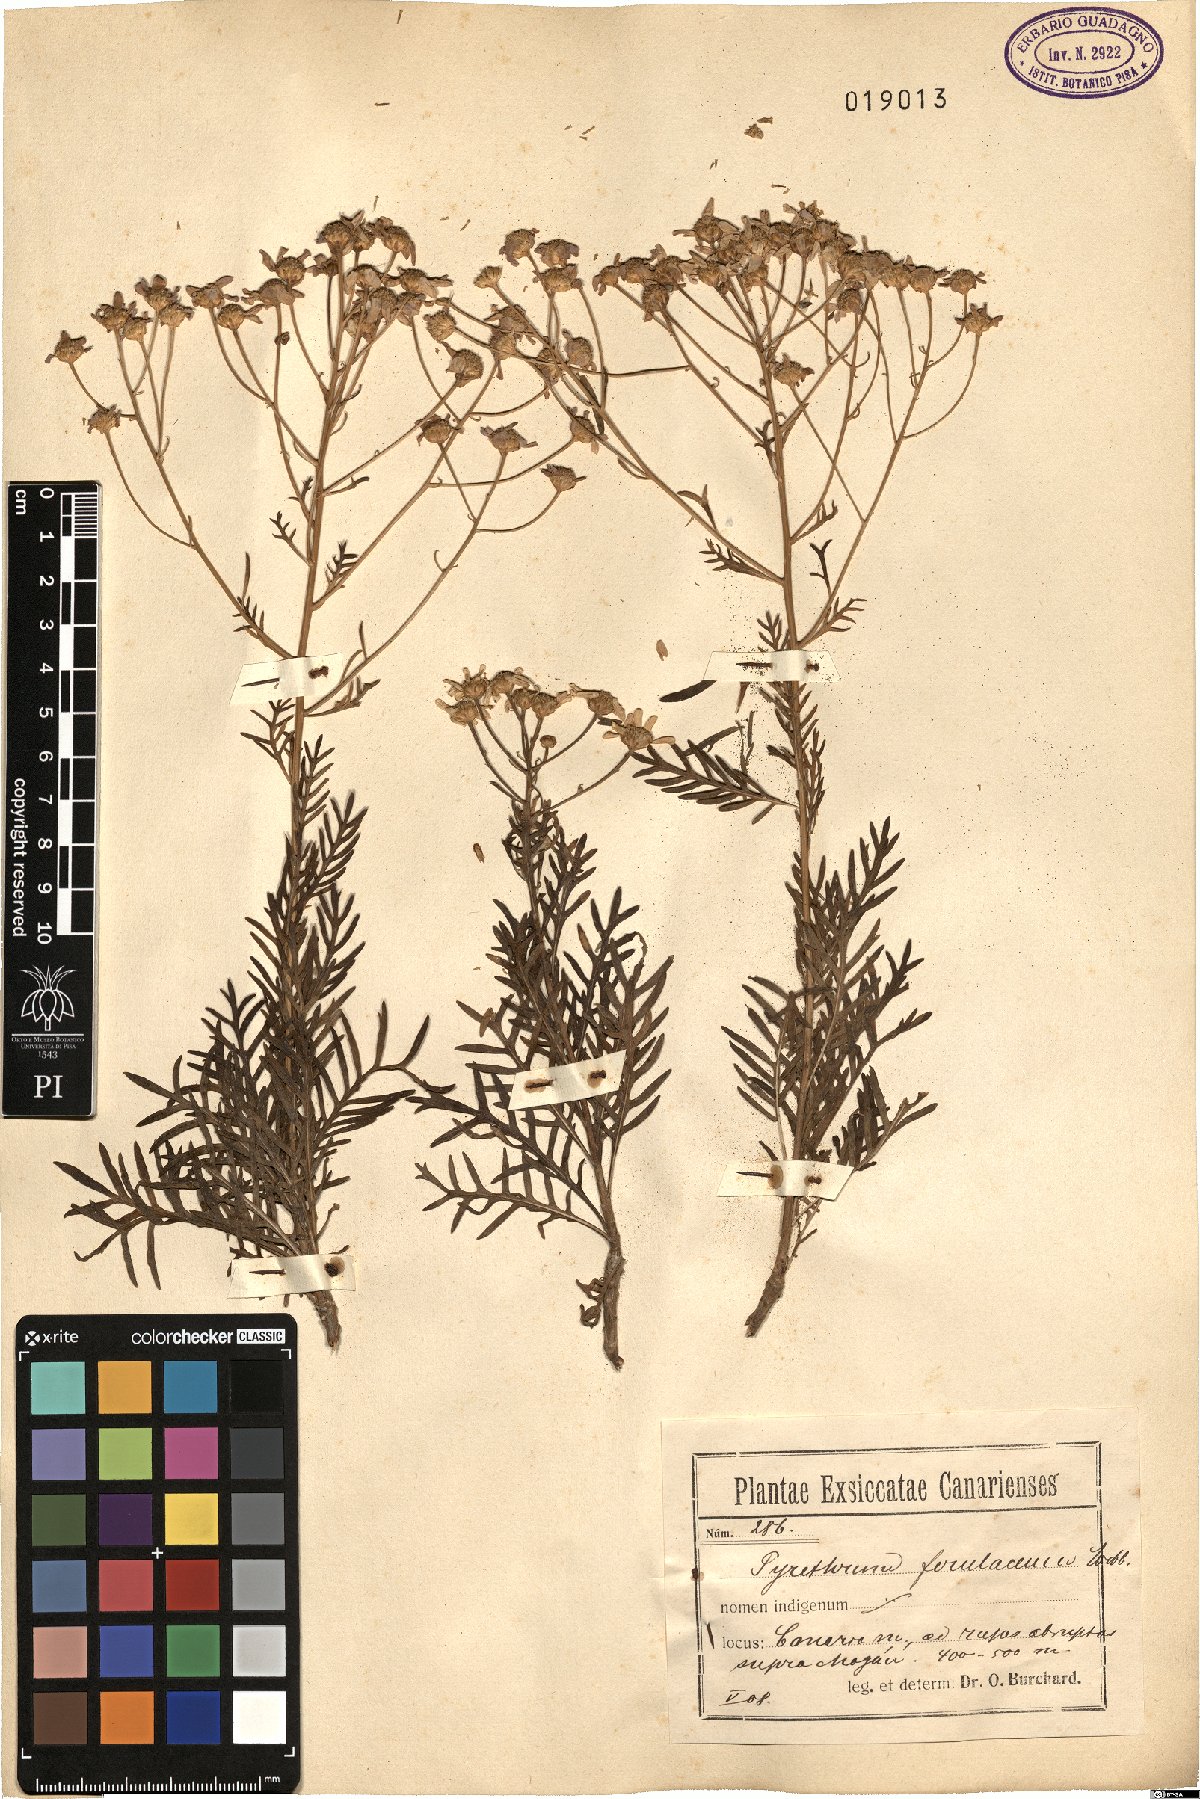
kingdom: Plantae
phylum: Tracheophyta
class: Magnoliopsida
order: Asterales
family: Asteraceae
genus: Gonospermum
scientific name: Gonospermum ferulaceum
